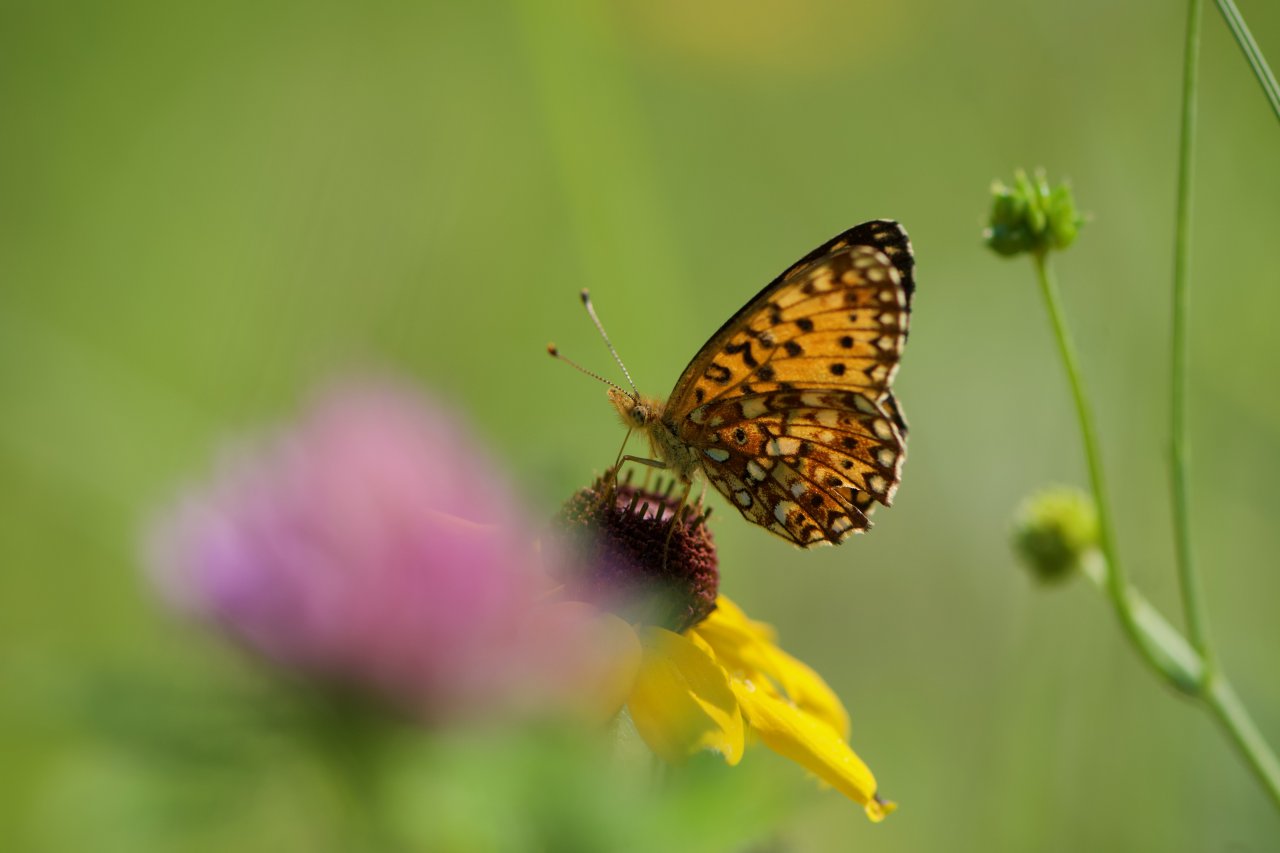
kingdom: Animalia
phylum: Arthropoda
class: Insecta
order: Lepidoptera
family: Nymphalidae
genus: Boloria
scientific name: Boloria selene
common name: Silver-bordered Fritillary
